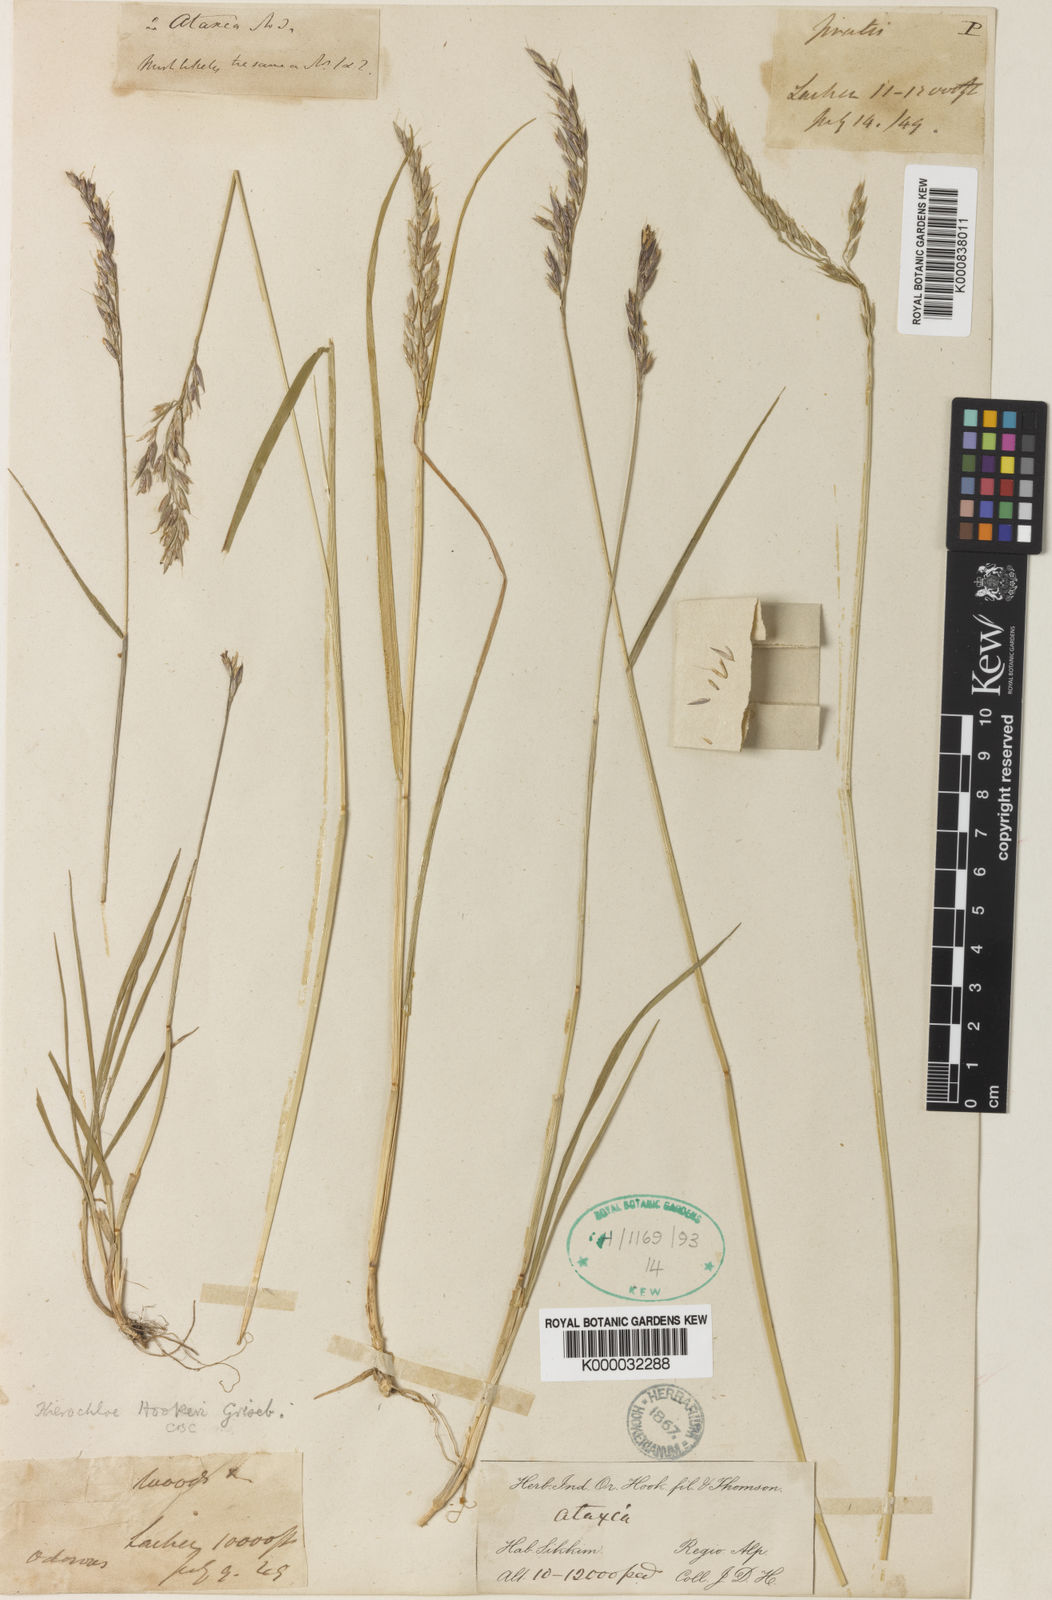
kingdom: Plantae
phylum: Tracheophyta
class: Liliopsida
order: Poales
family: Poaceae
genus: Anthoxanthum
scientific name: Anthoxanthum hookeri
